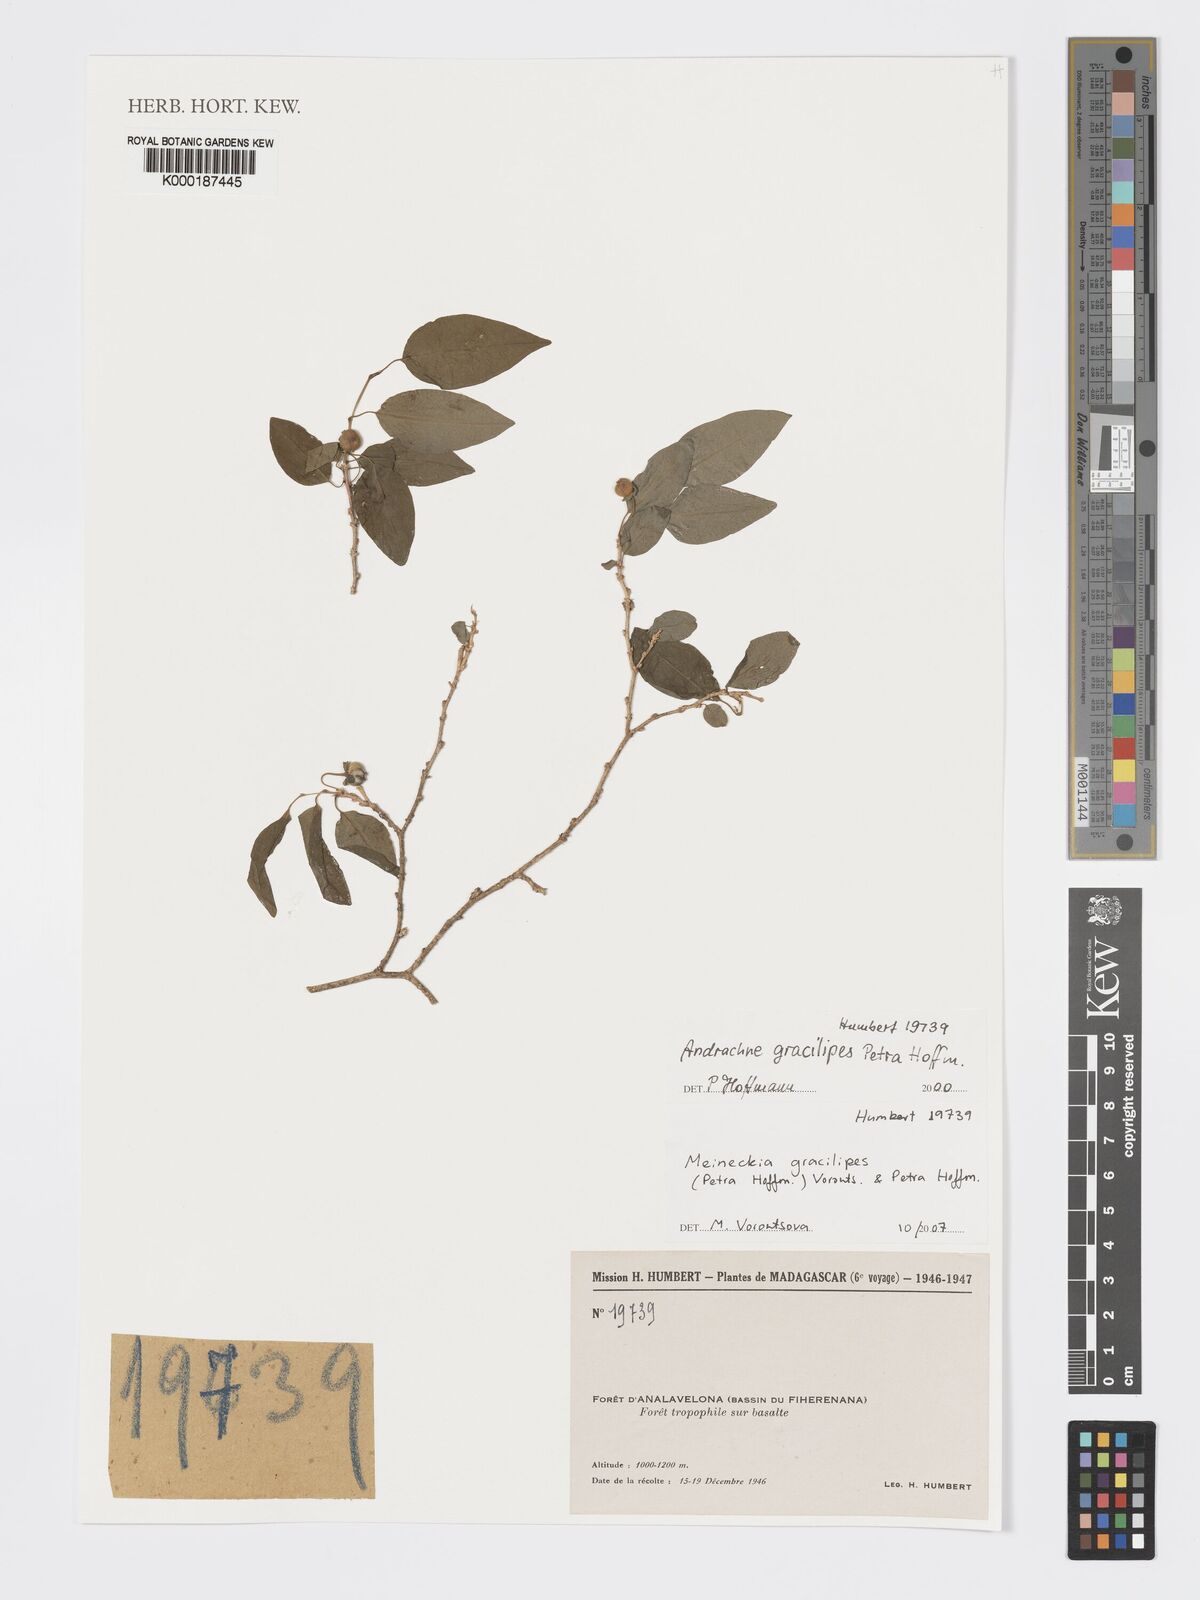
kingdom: Plantae
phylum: Tracheophyta
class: Magnoliopsida
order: Malpighiales
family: Phyllanthaceae
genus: Meineckia
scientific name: Meineckia gracilipes
